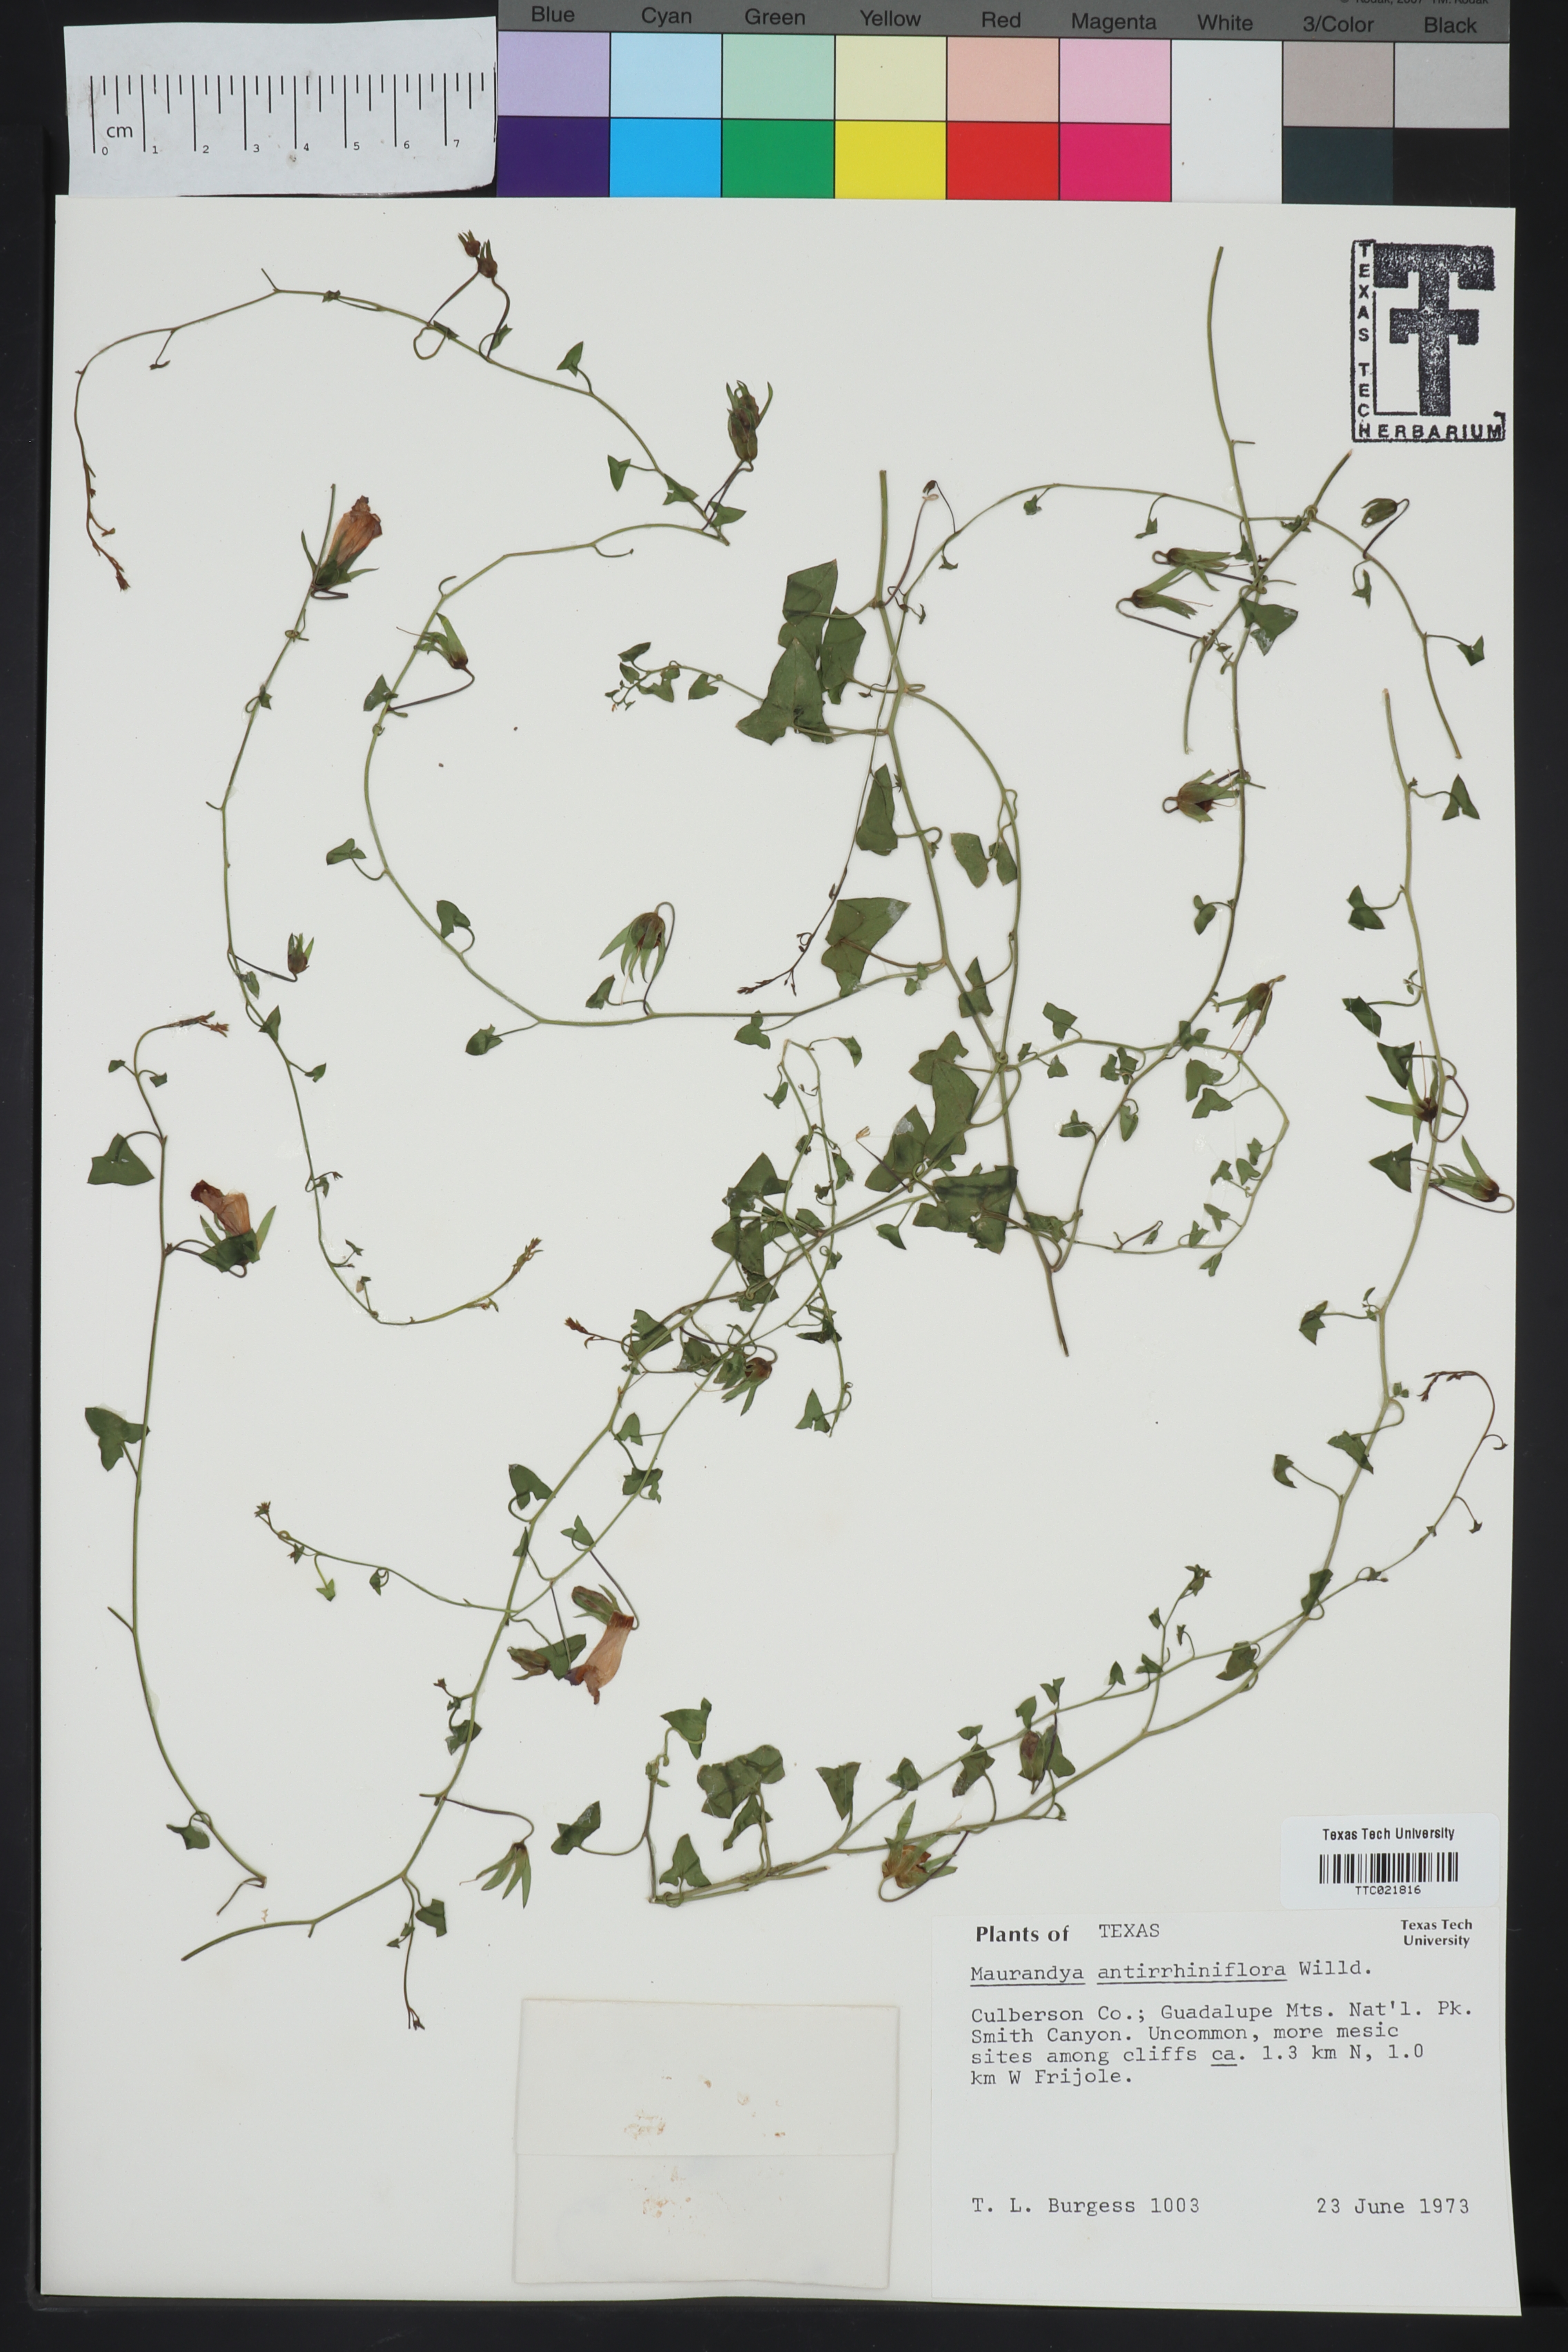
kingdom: Plantae
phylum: Tracheophyta
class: Magnoliopsida
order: Lamiales
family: Plantaginaceae
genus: Maurandella
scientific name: Maurandella antirrhiniflora
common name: Violet twining-snapdragon
